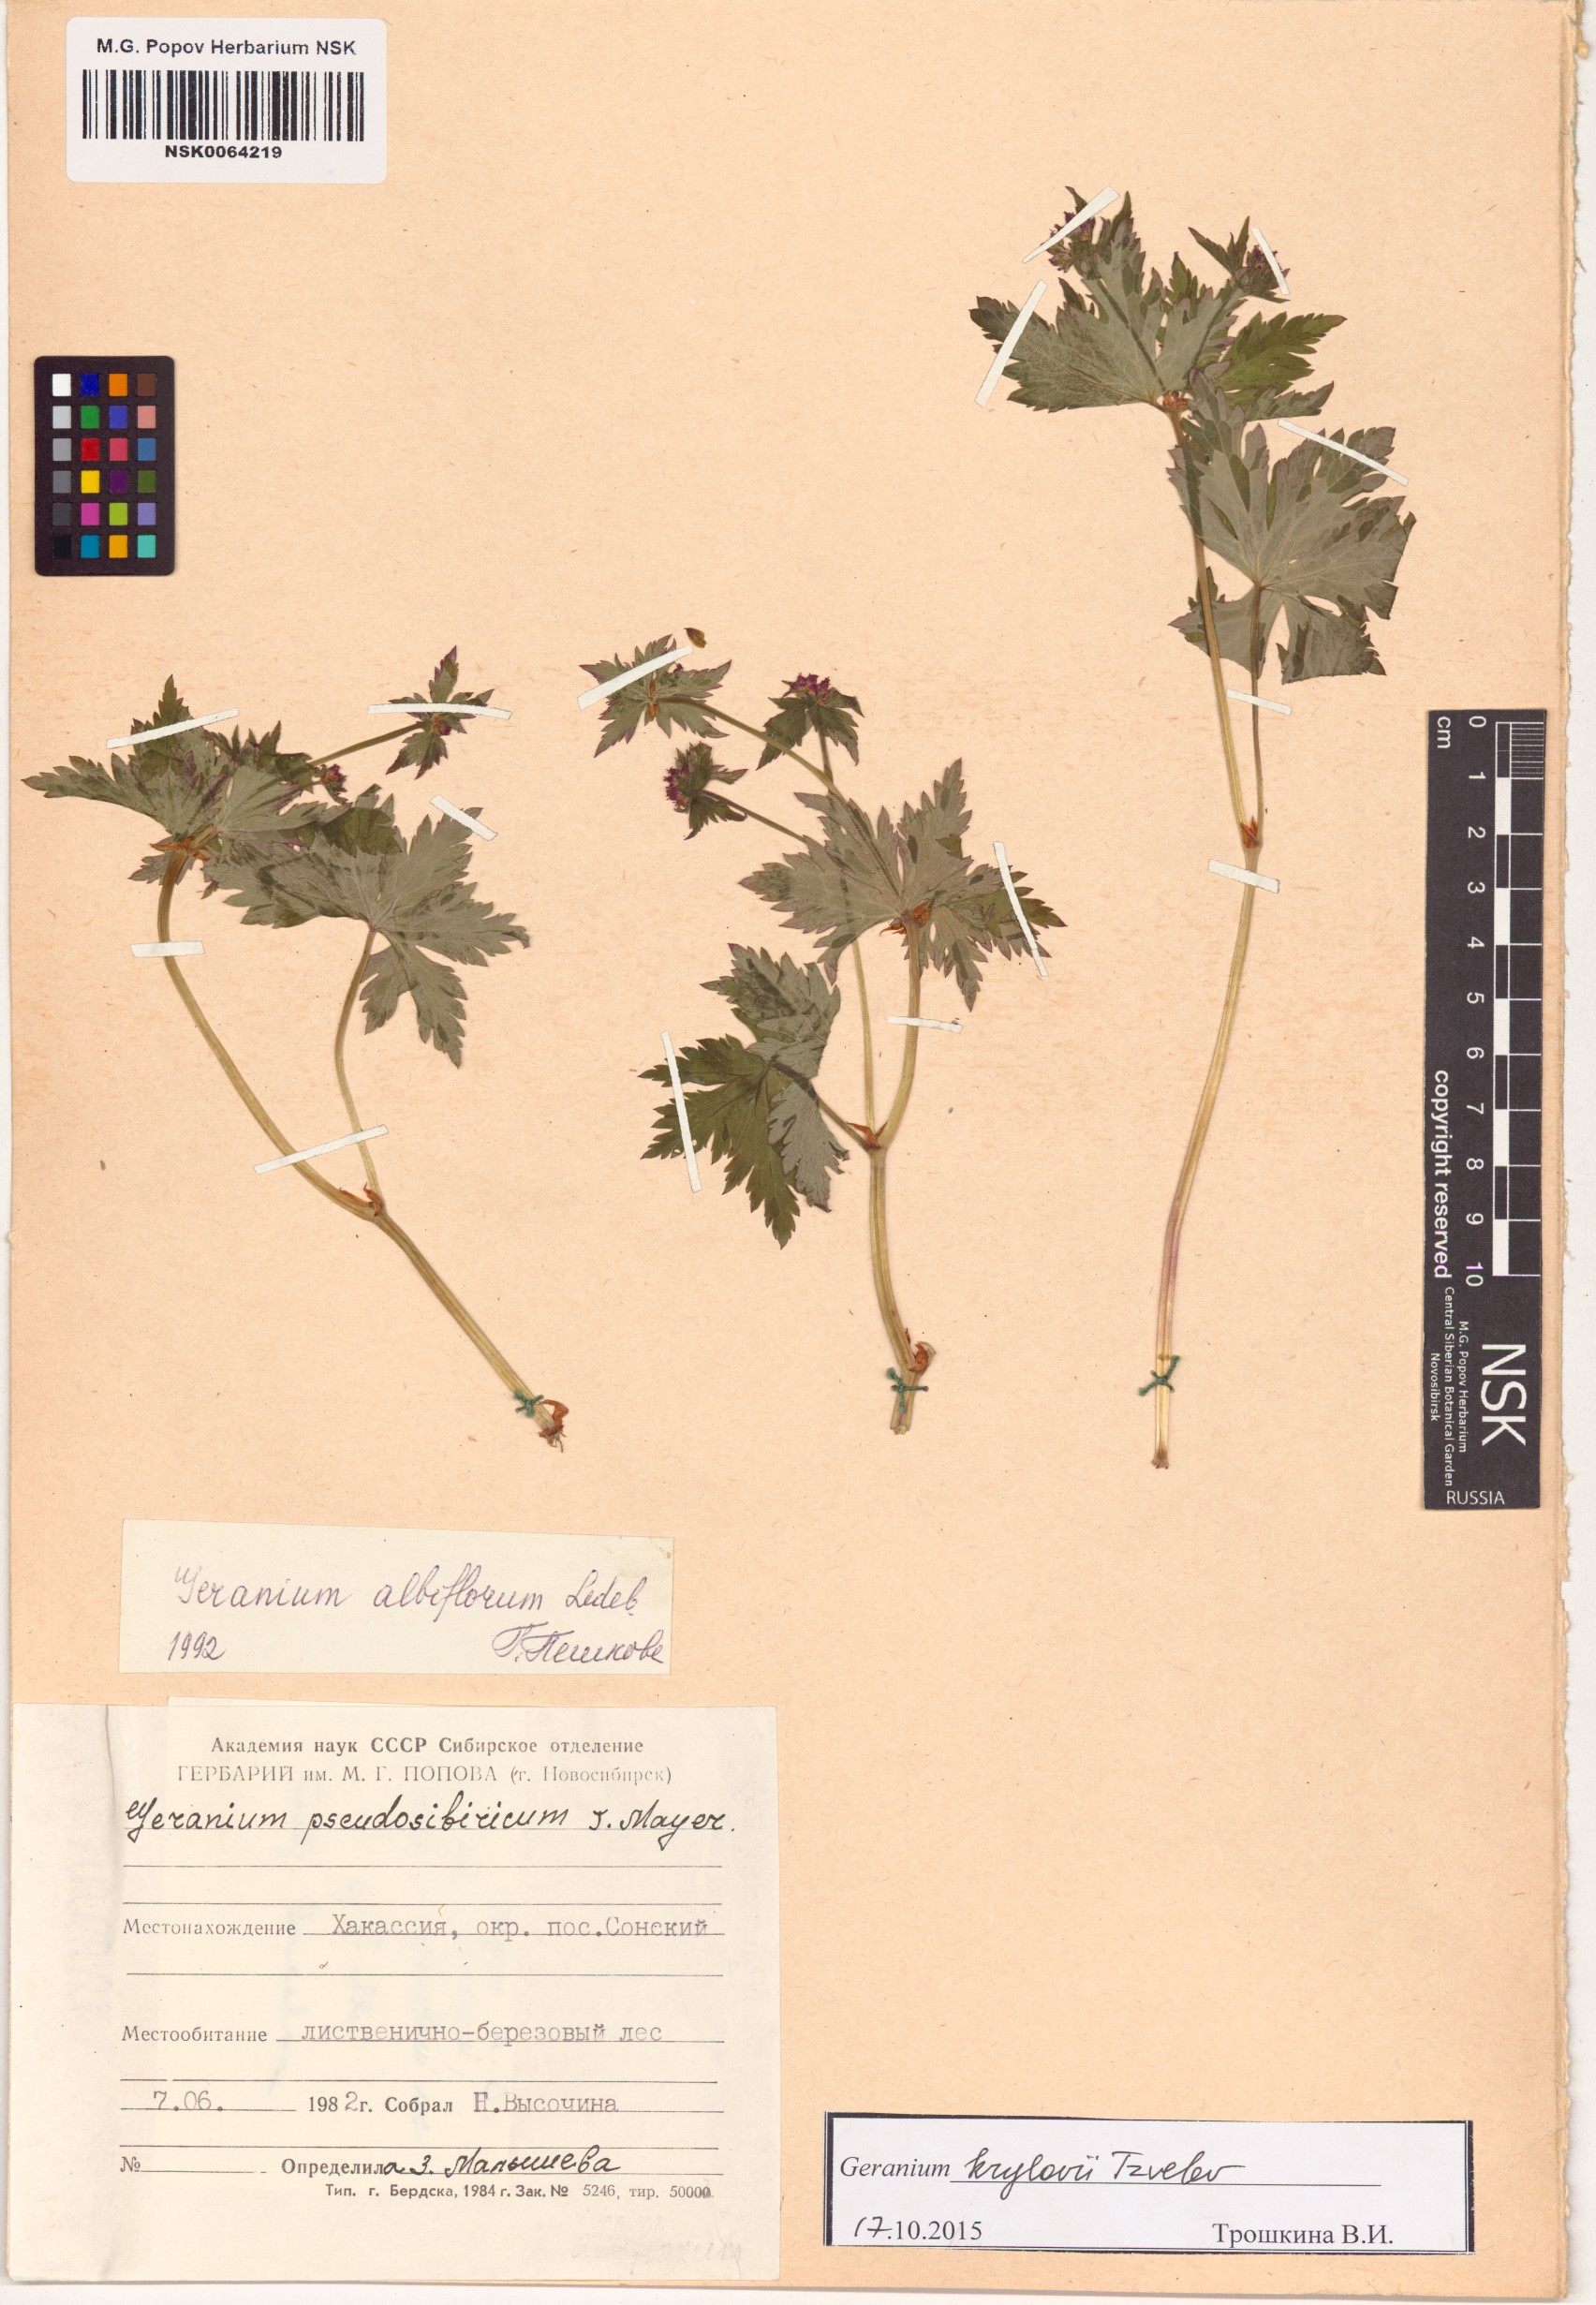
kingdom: Plantae
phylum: Tracheophyta
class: Magnoliopsida
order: Geraniales
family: Geraniaceae
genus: Geranium
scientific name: Geranium sylvaticum
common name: Wood crane's-bill
